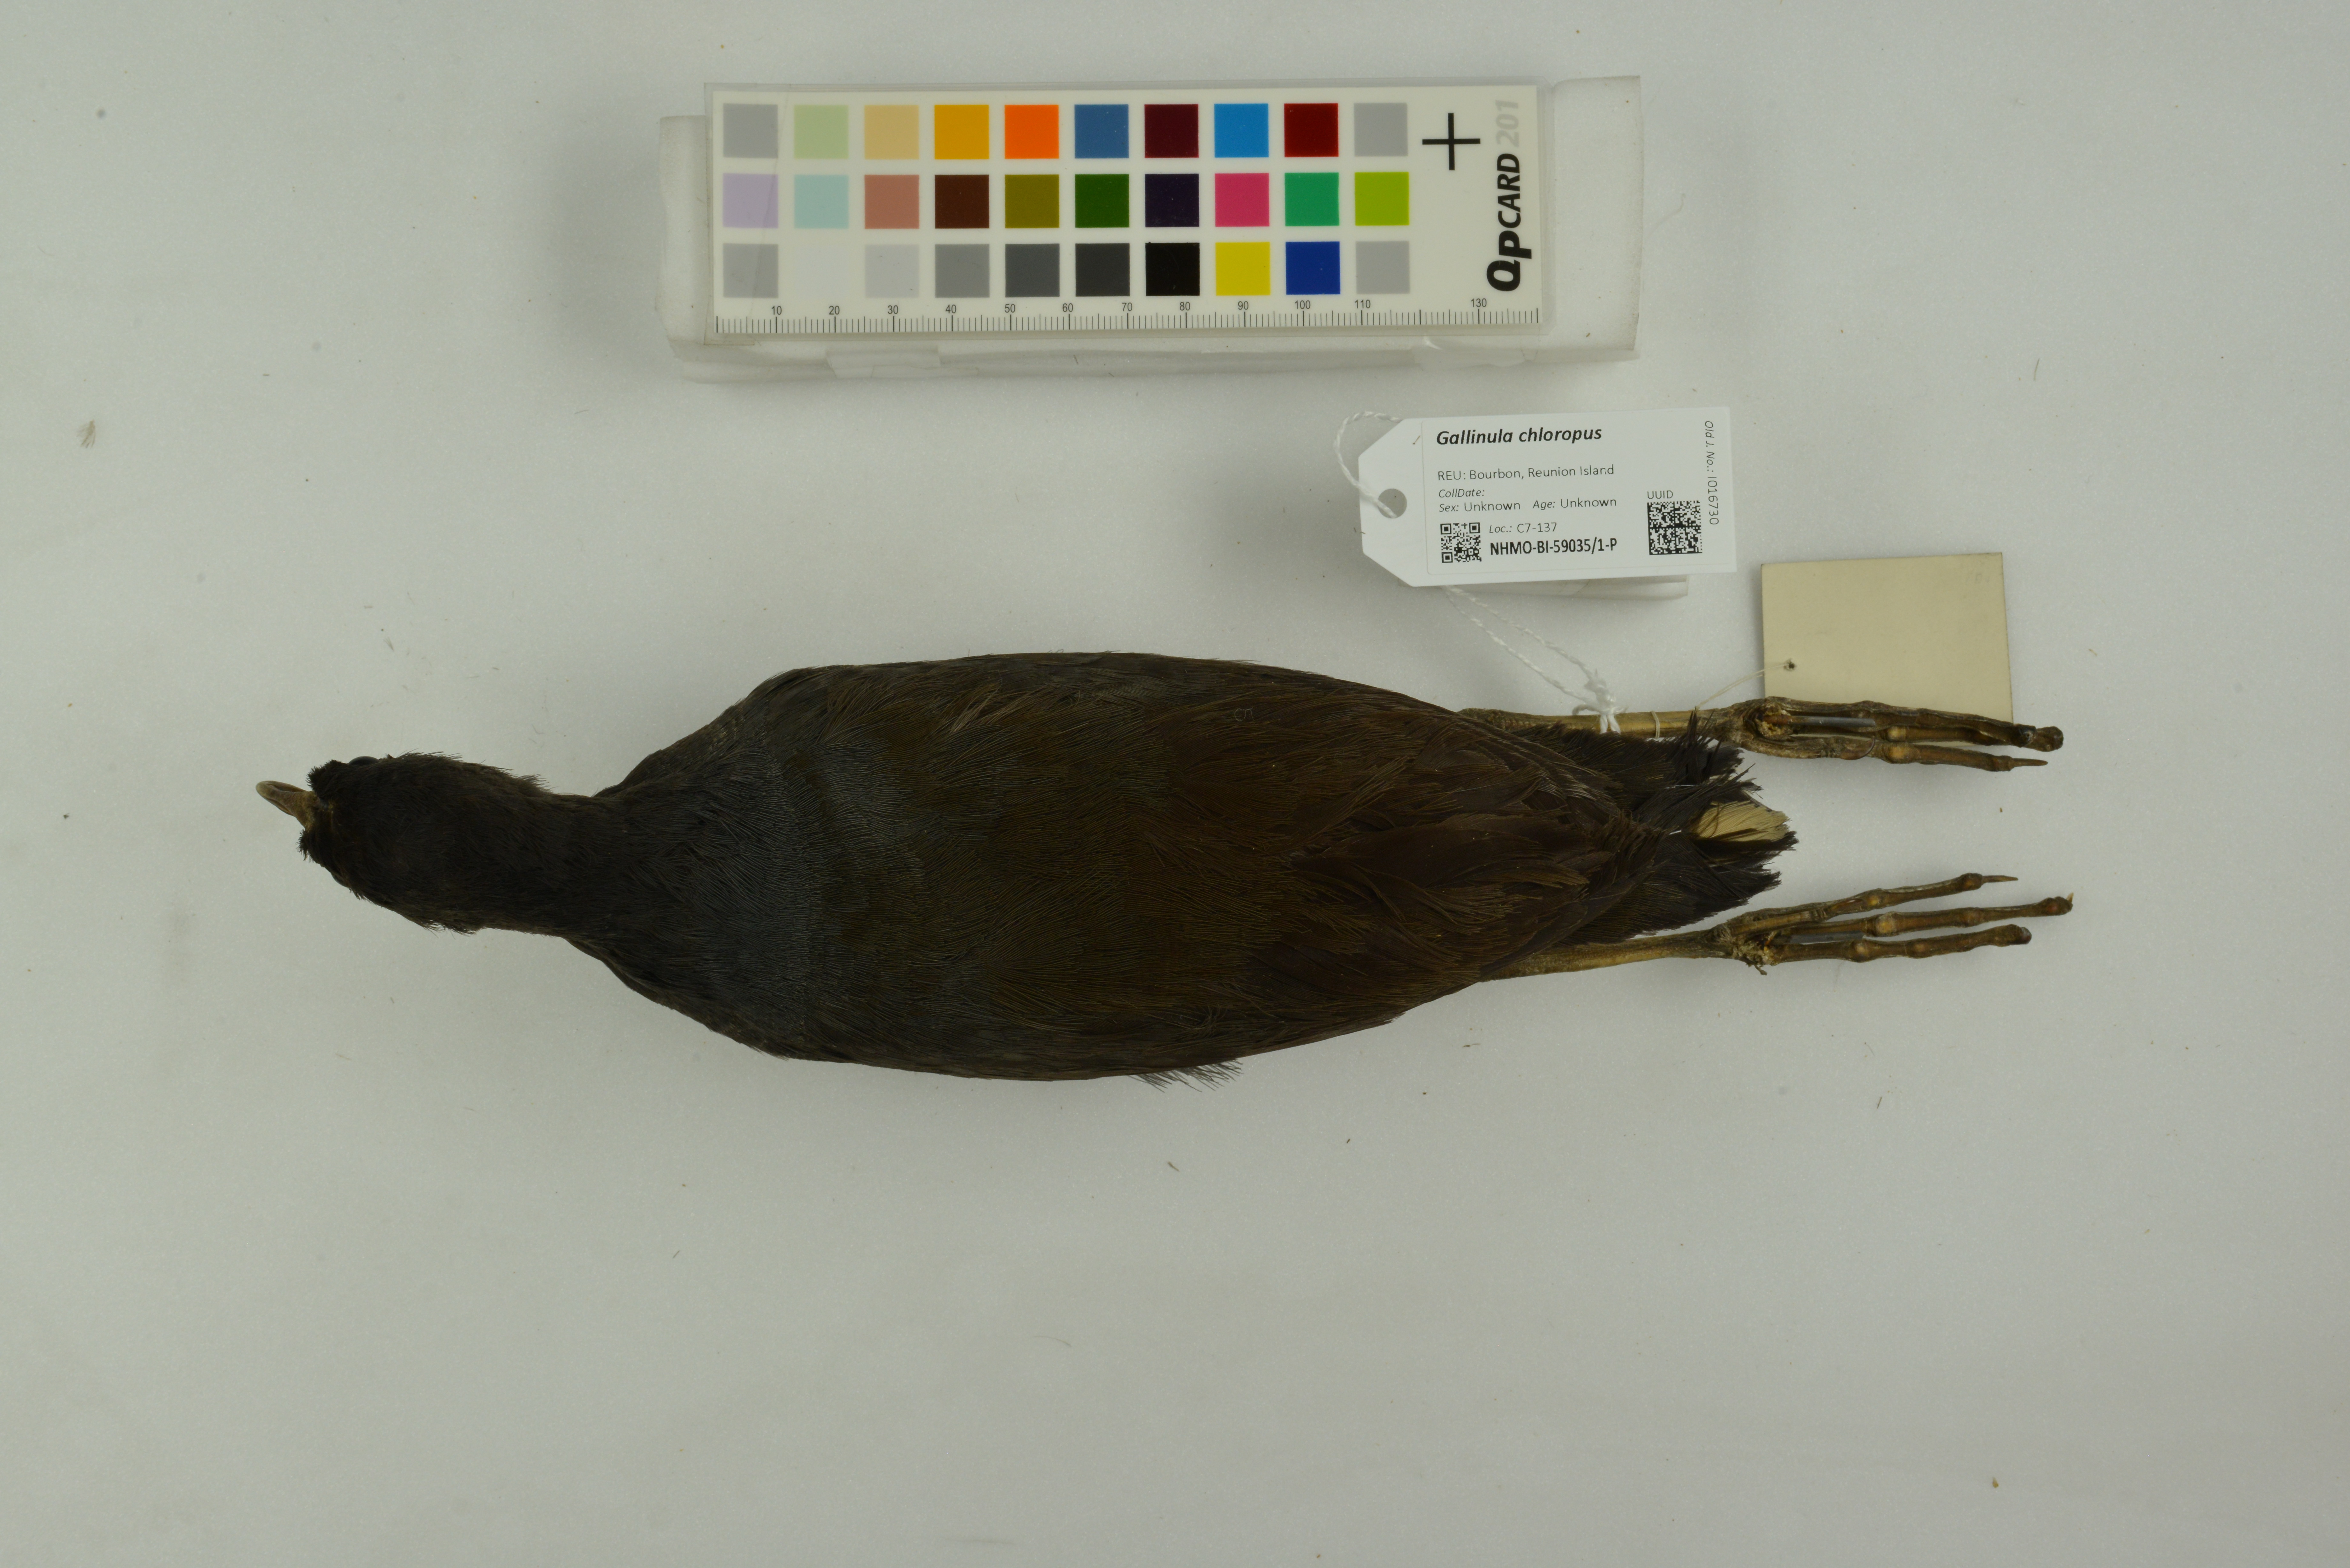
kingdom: Animalia
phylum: Chordata
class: Aves
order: Gruiformes
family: Rallidae
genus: Gallinula
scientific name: Gallinula chloropus
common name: Common moorhen
